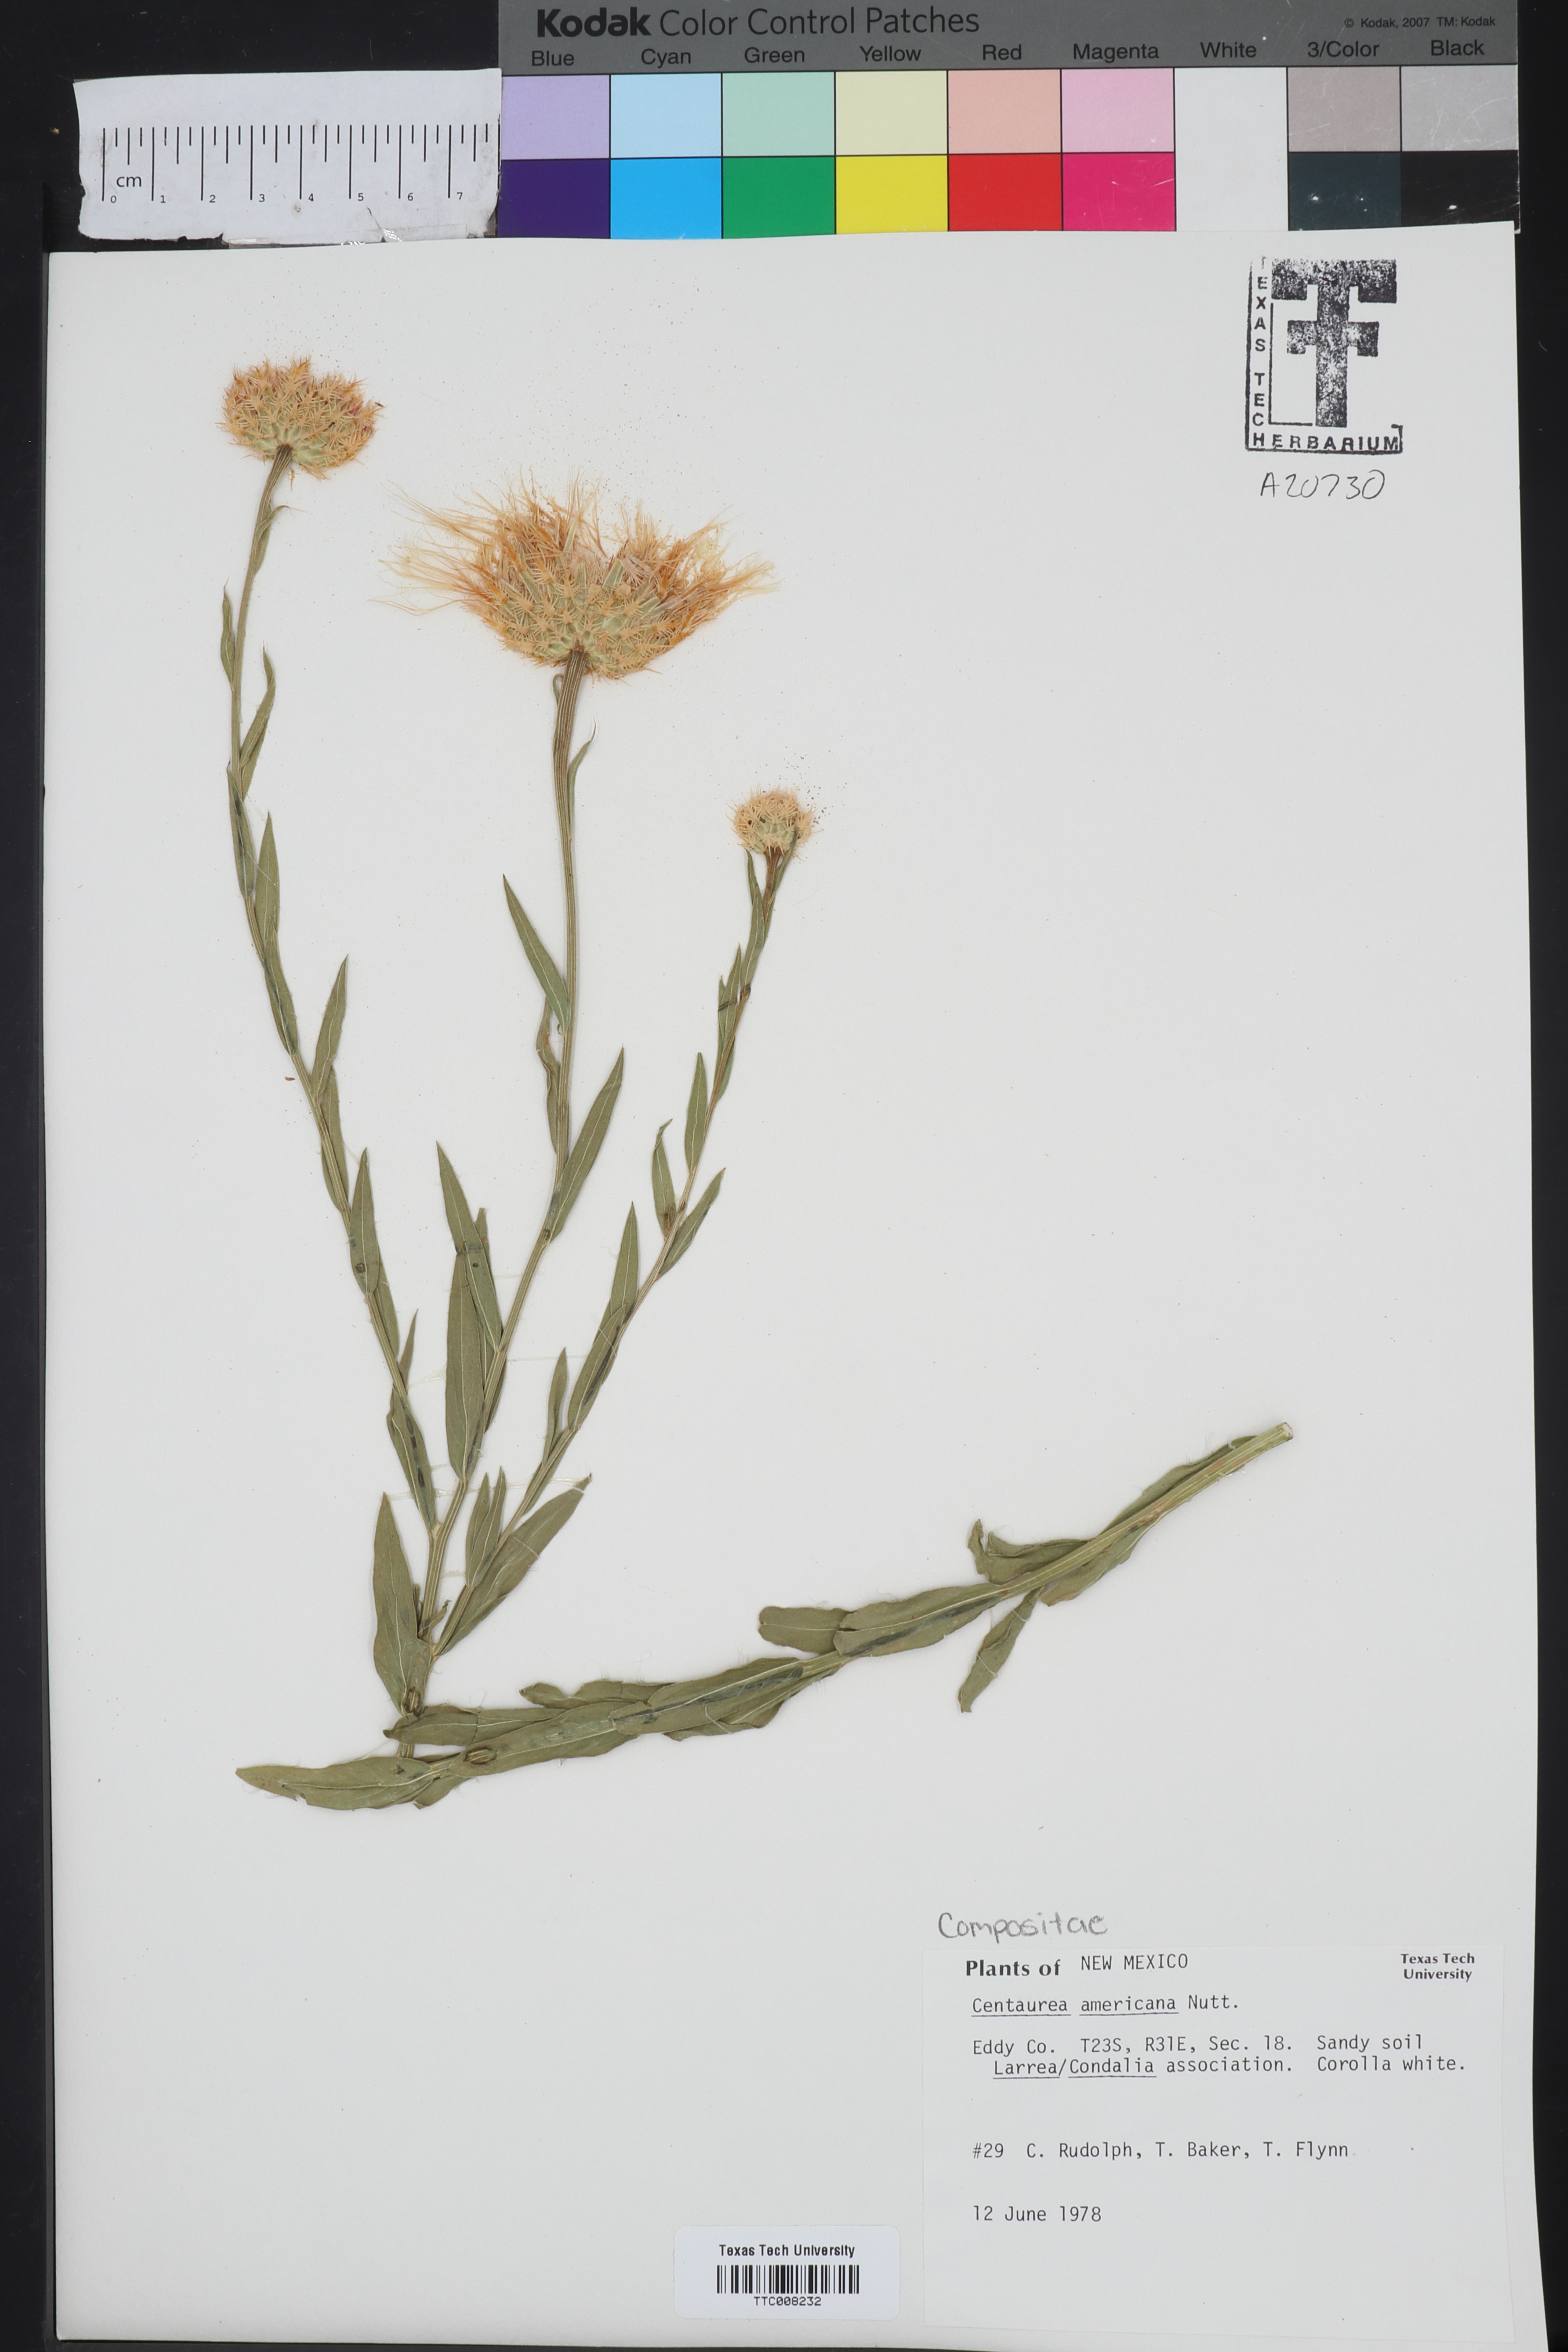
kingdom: Plantae
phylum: Tracheophyta
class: Magnoliopsida
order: Asterales
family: Asteraceae
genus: Plectocephalus
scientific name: Plectocephalus americanus
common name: American basket-flower
